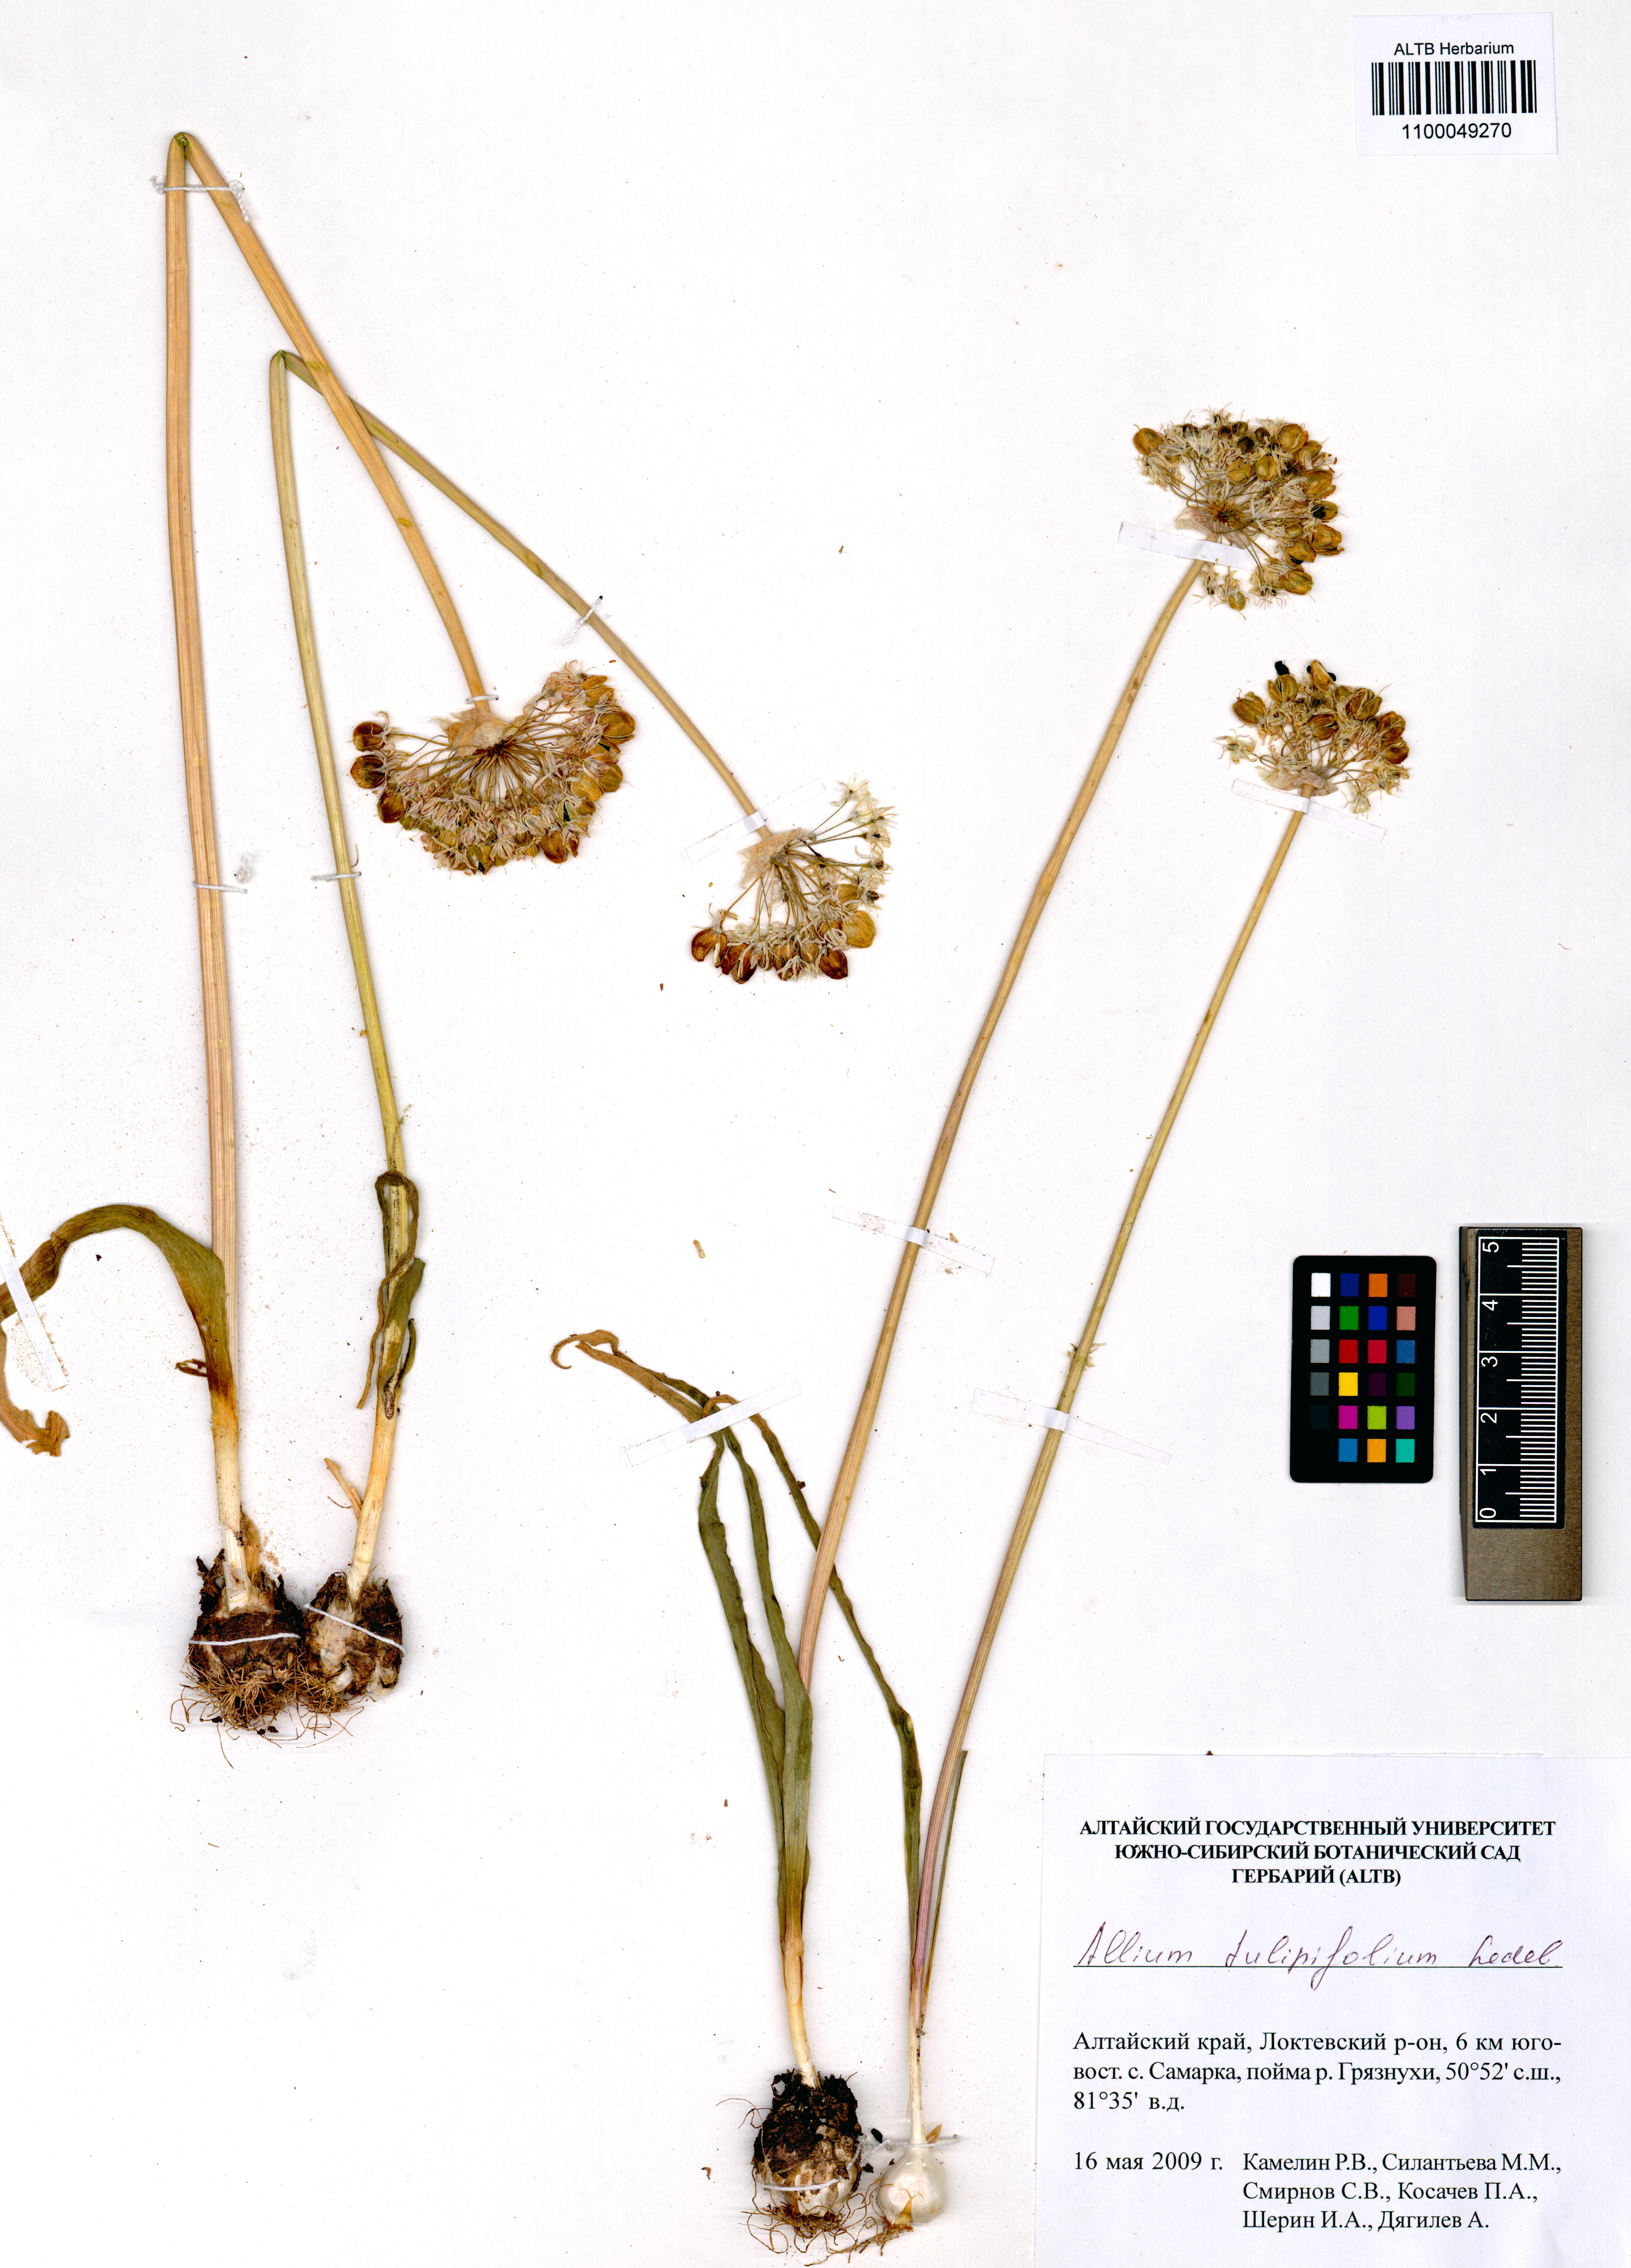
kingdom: Plantae
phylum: Tracheophyta
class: Liliopsida
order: Asparagales
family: Amaryllidaceae
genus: Allium
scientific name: Allium tulipifolium
